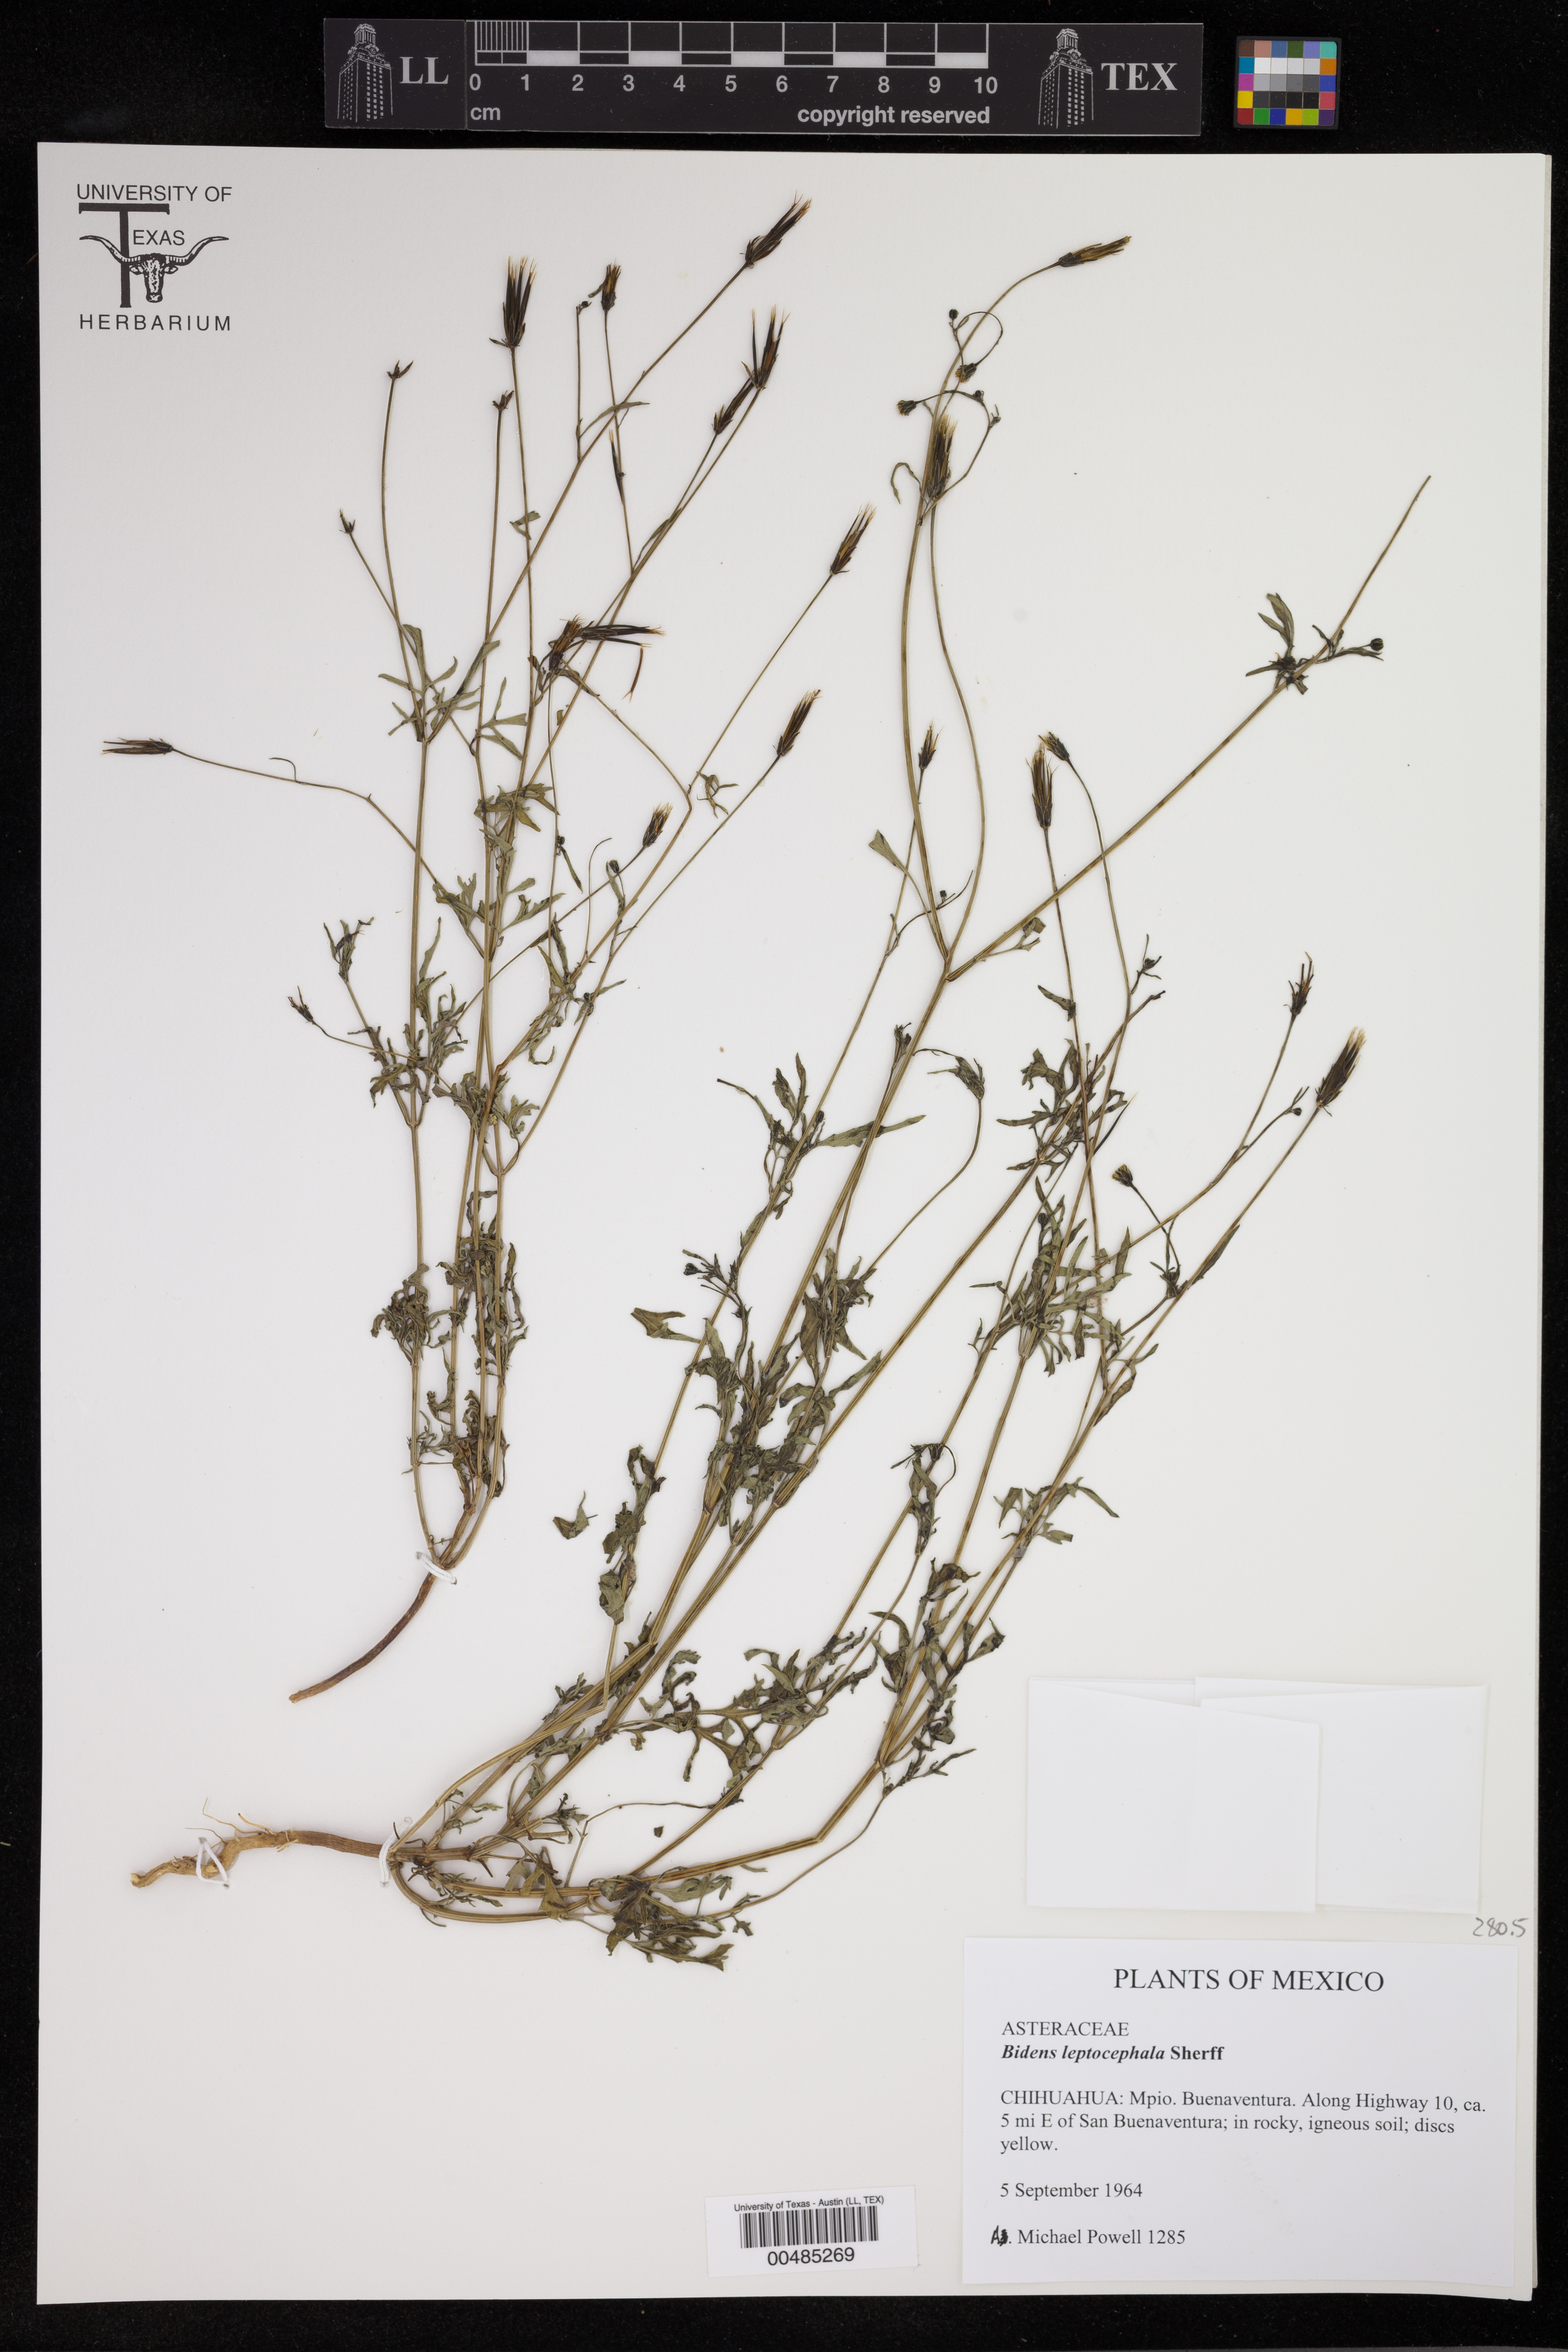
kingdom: Plantae
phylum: Tracheophyta
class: Magnoliopsida
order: Asterales
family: Asteraceae
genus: Bidens
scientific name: Bidens leptocephala
